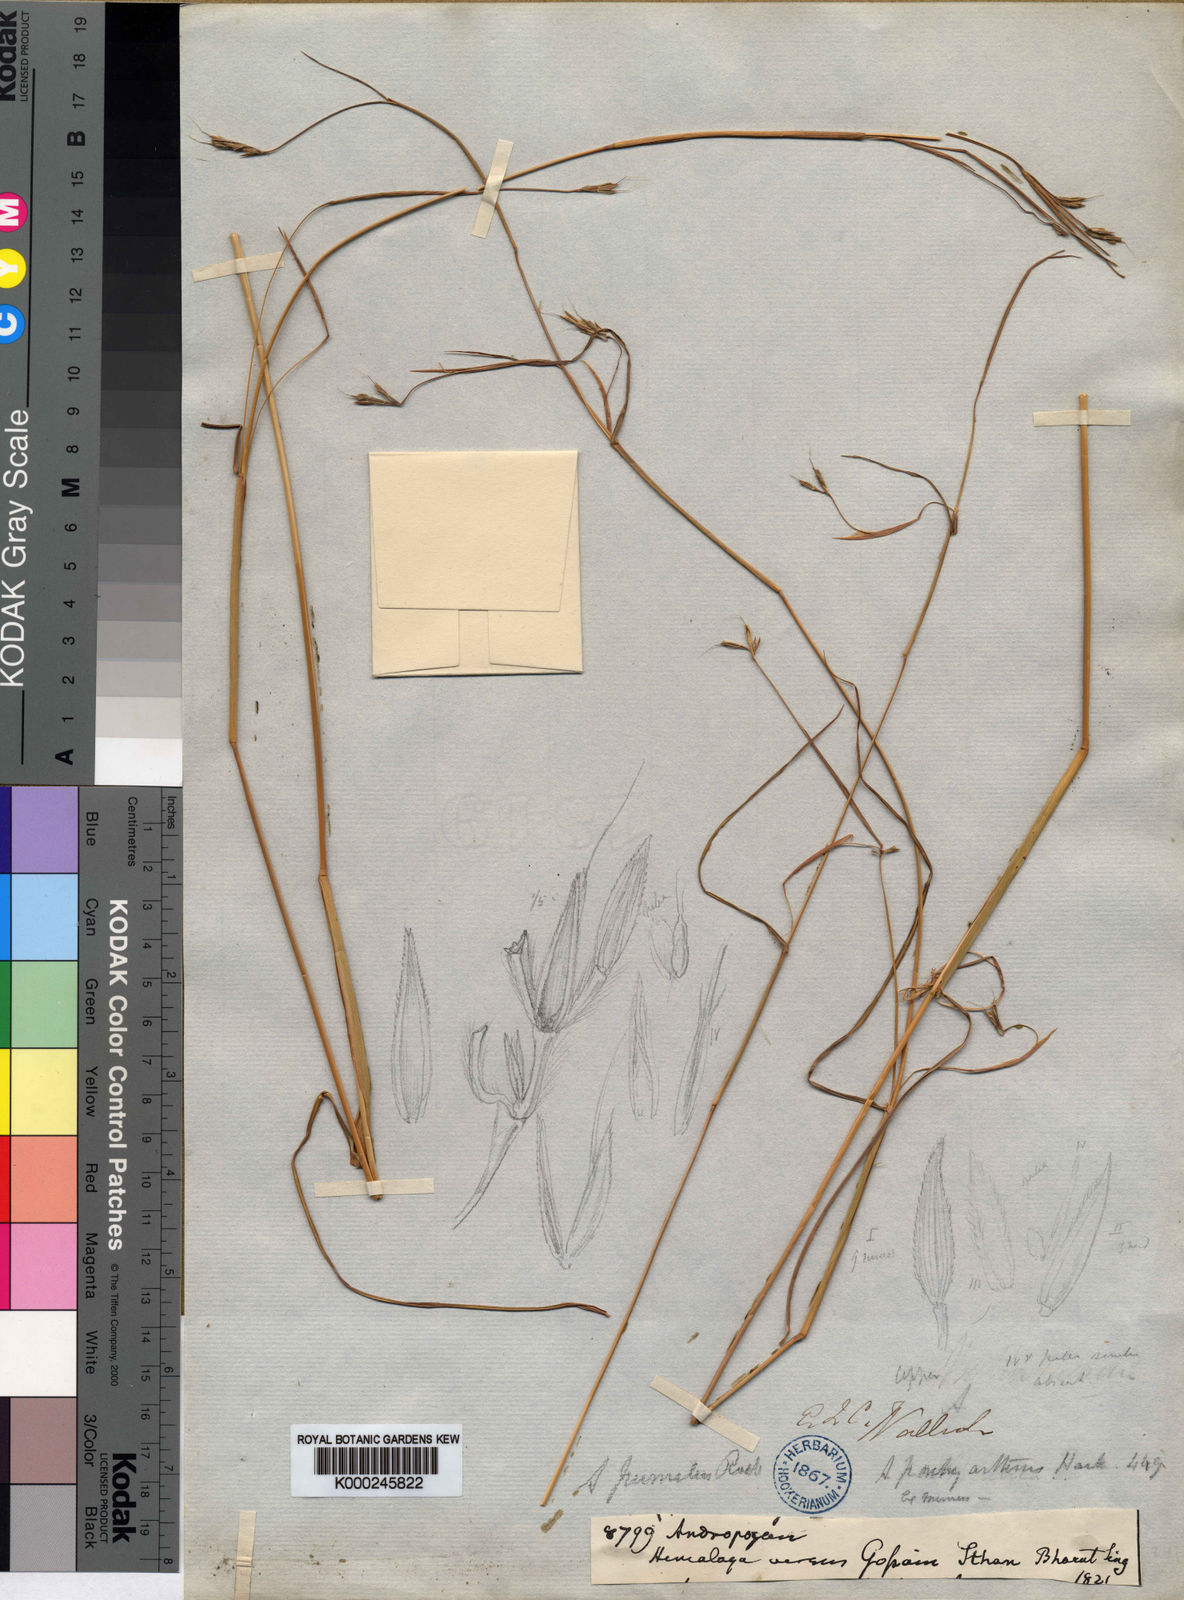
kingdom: Plantae
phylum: Tracheophyta
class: Liliopsida
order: Poales
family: Poaceae
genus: Andropogon
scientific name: Andropogon pumilus
